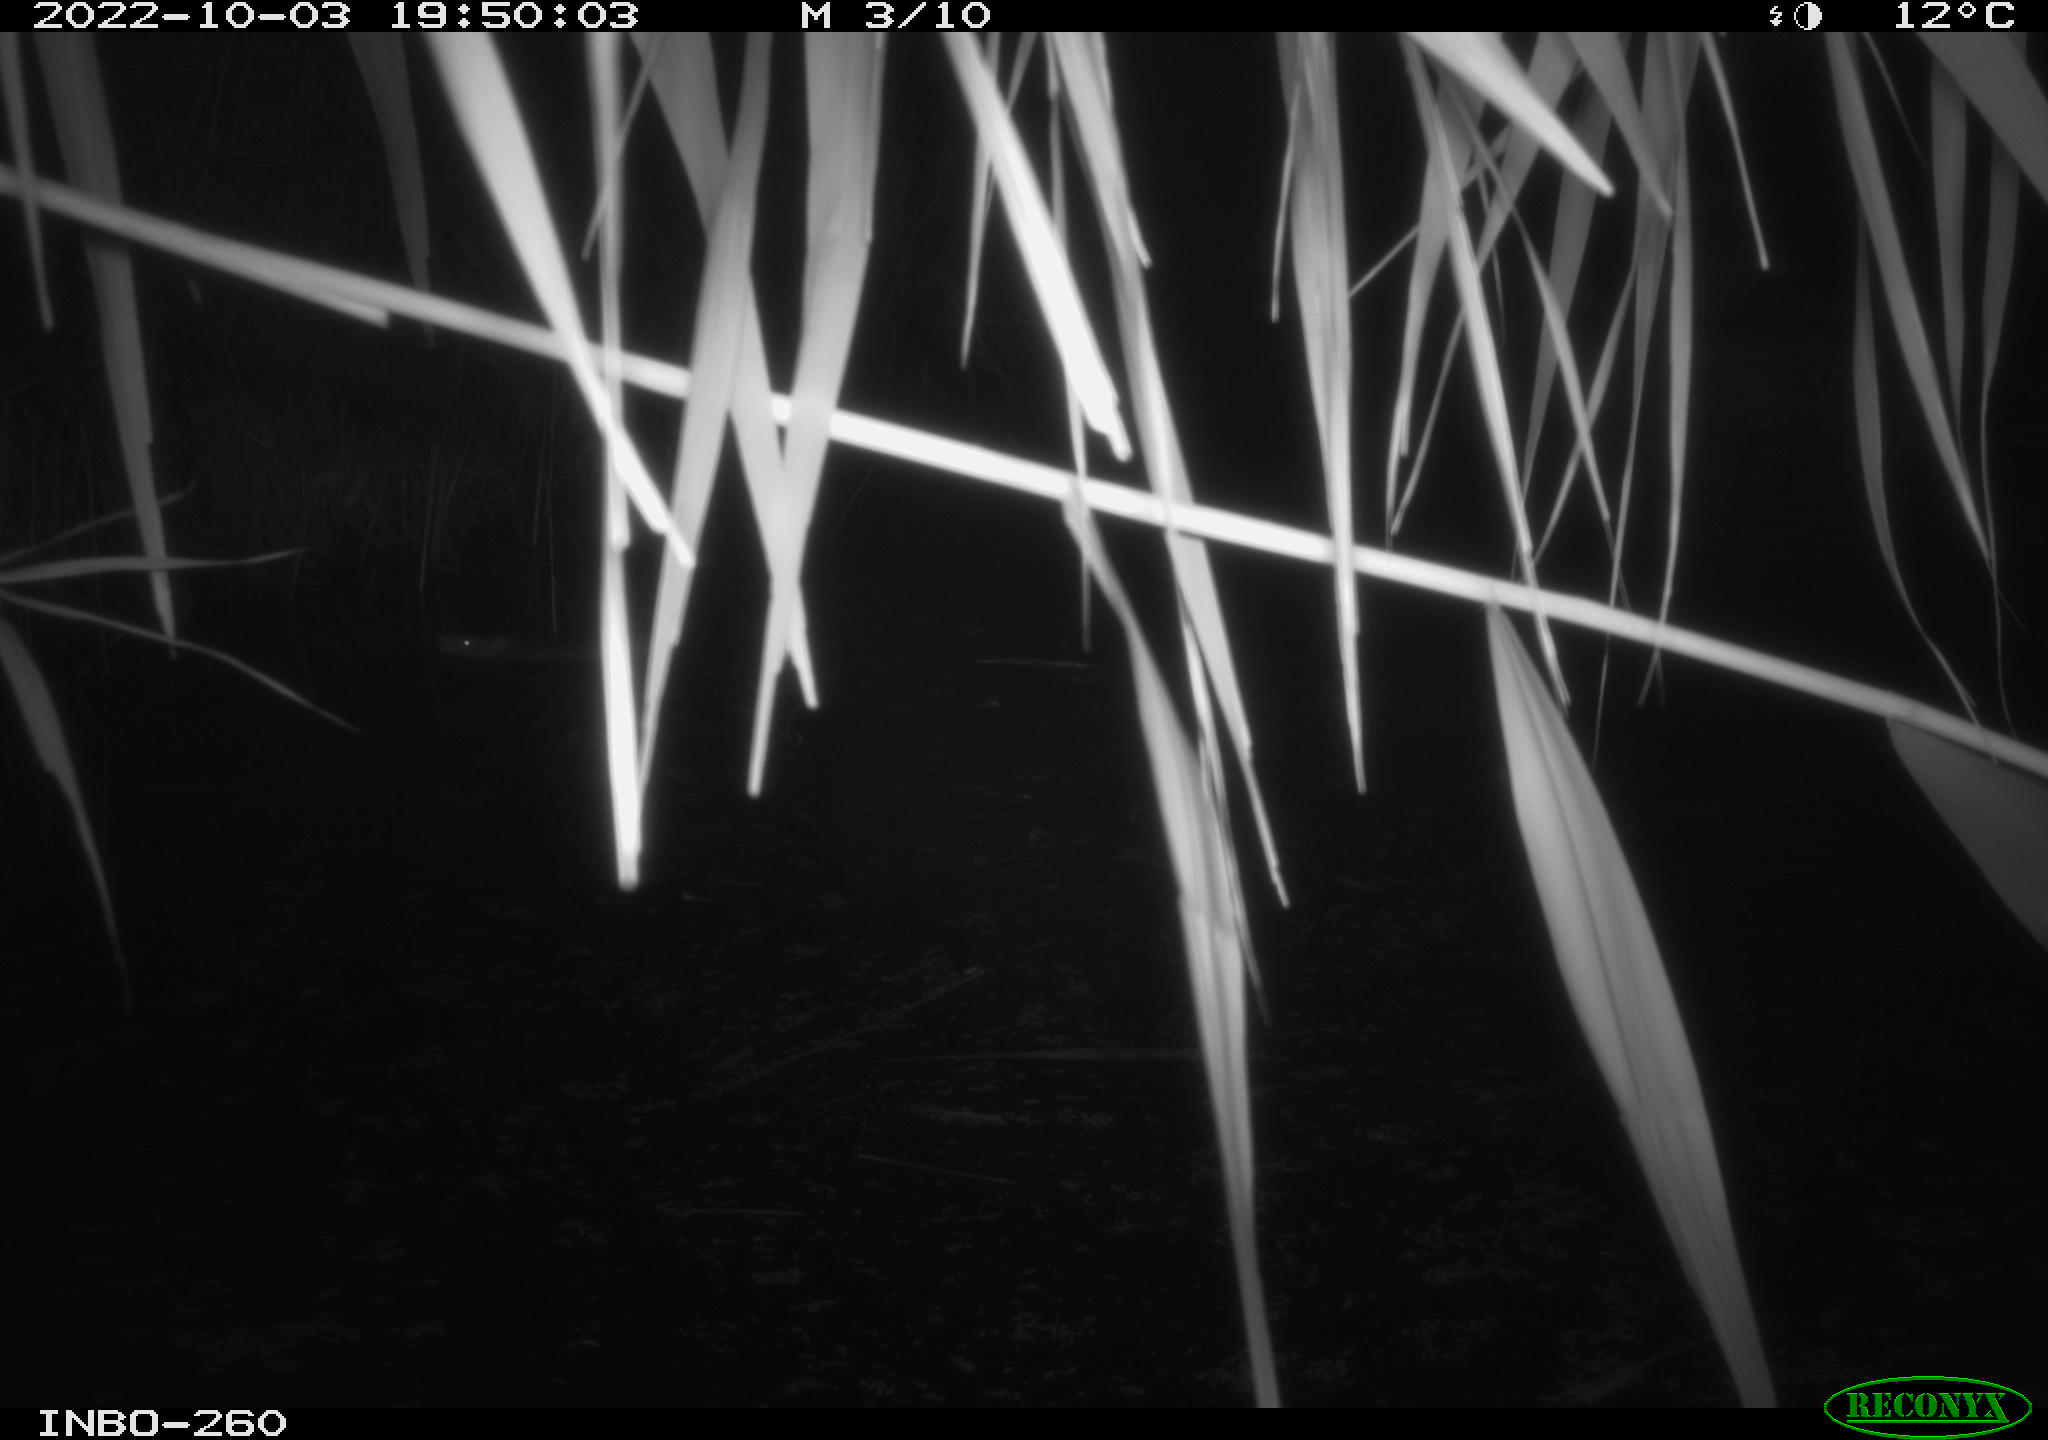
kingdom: Animalia
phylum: Chordata
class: Mammalia
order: Rodentia
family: Muridae
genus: Rattus
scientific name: Rattus norvegicus
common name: Brown rat
